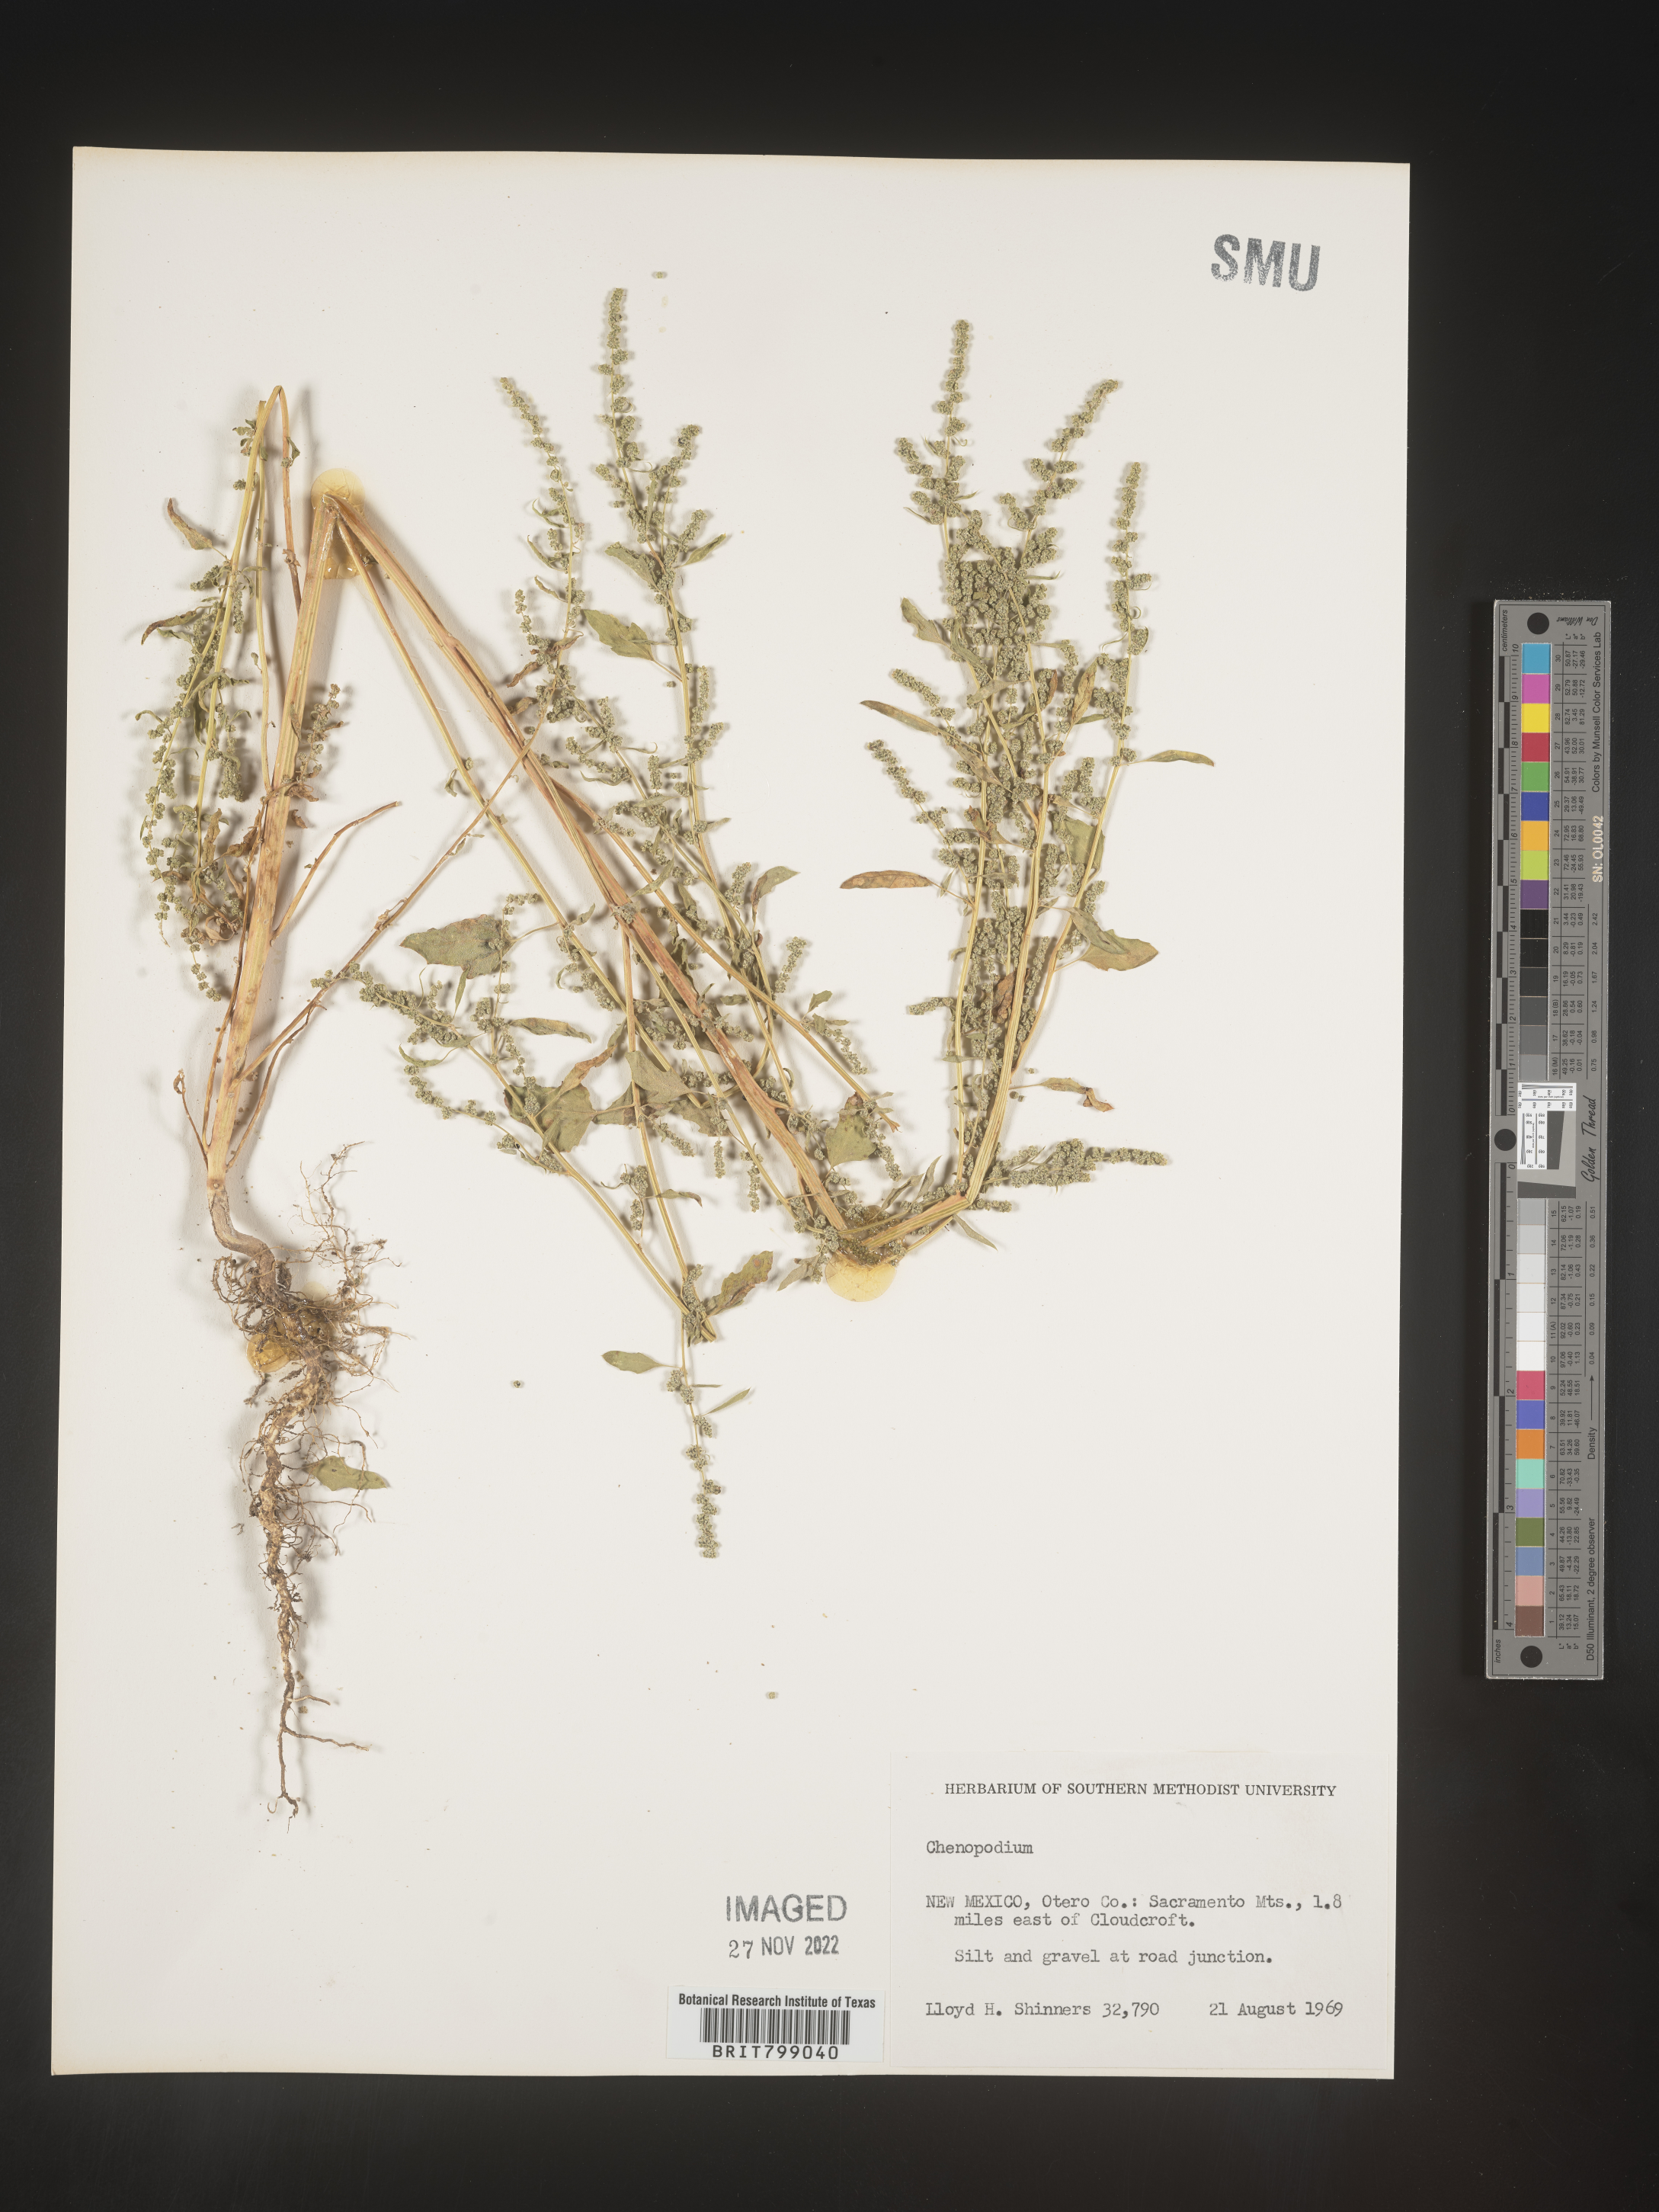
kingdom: Plantae
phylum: Tracheophyta
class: Magnoliopsida
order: Caryophyllales
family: Amaranthaceae
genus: Chenopodium
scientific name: Chenopodium
